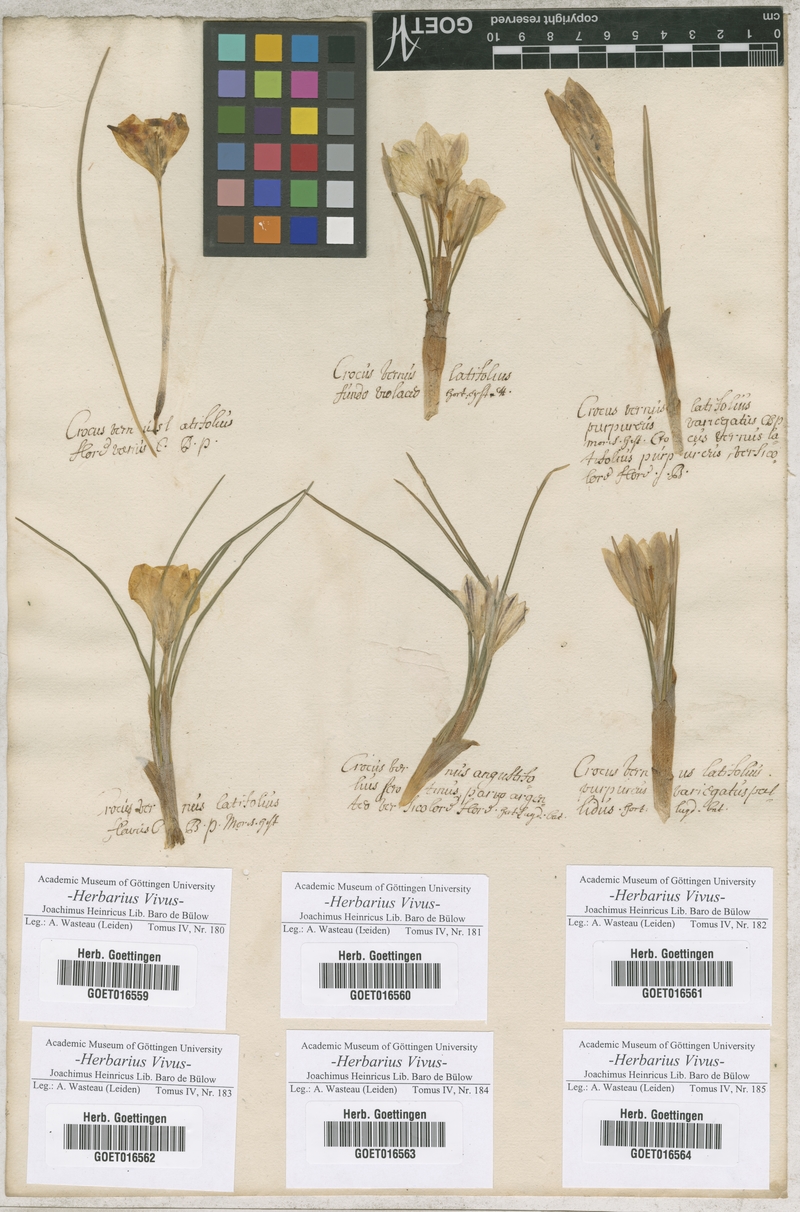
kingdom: Plantae
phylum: Tracheophyta
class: Liliopsida
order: Asparagales
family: Iridaceae
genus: Crocus
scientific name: Crocus vernus
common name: Spring crocus
